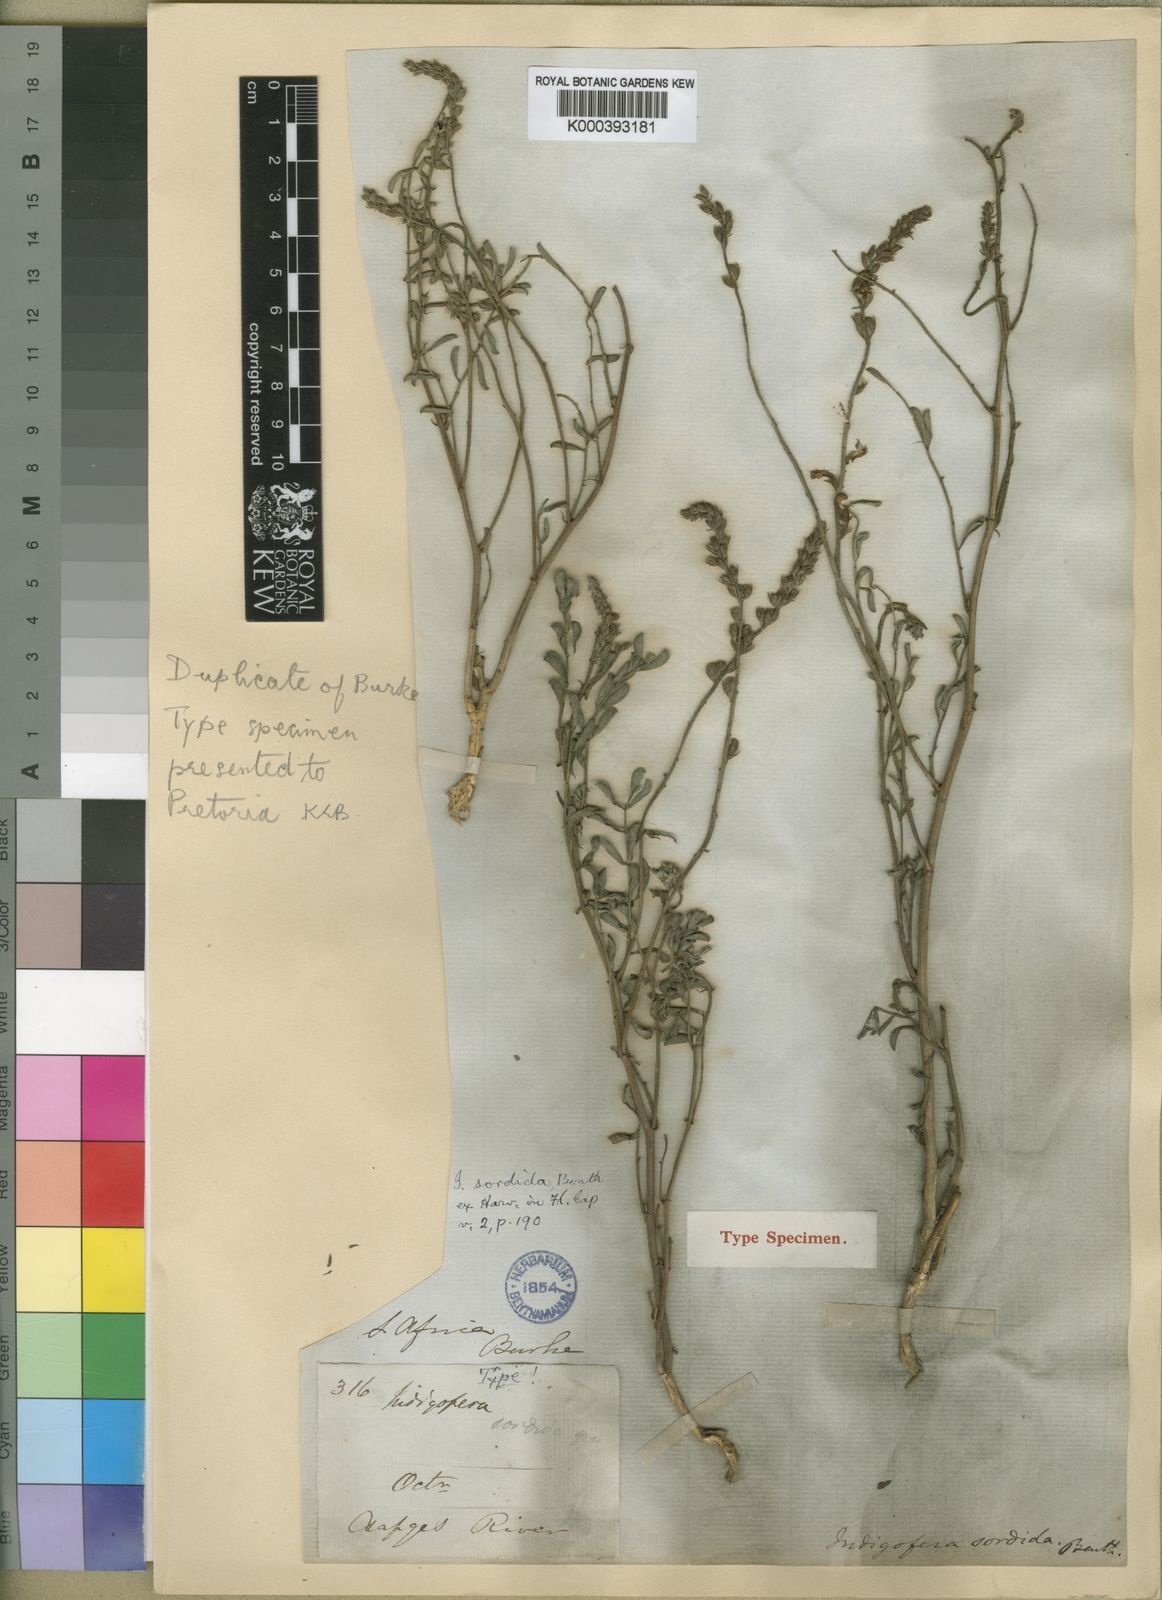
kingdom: Plantae
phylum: Tracheophyta
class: Magnoliopsida
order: Fabales
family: Fabaceae
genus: Indigofera
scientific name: Indigofera sordida
